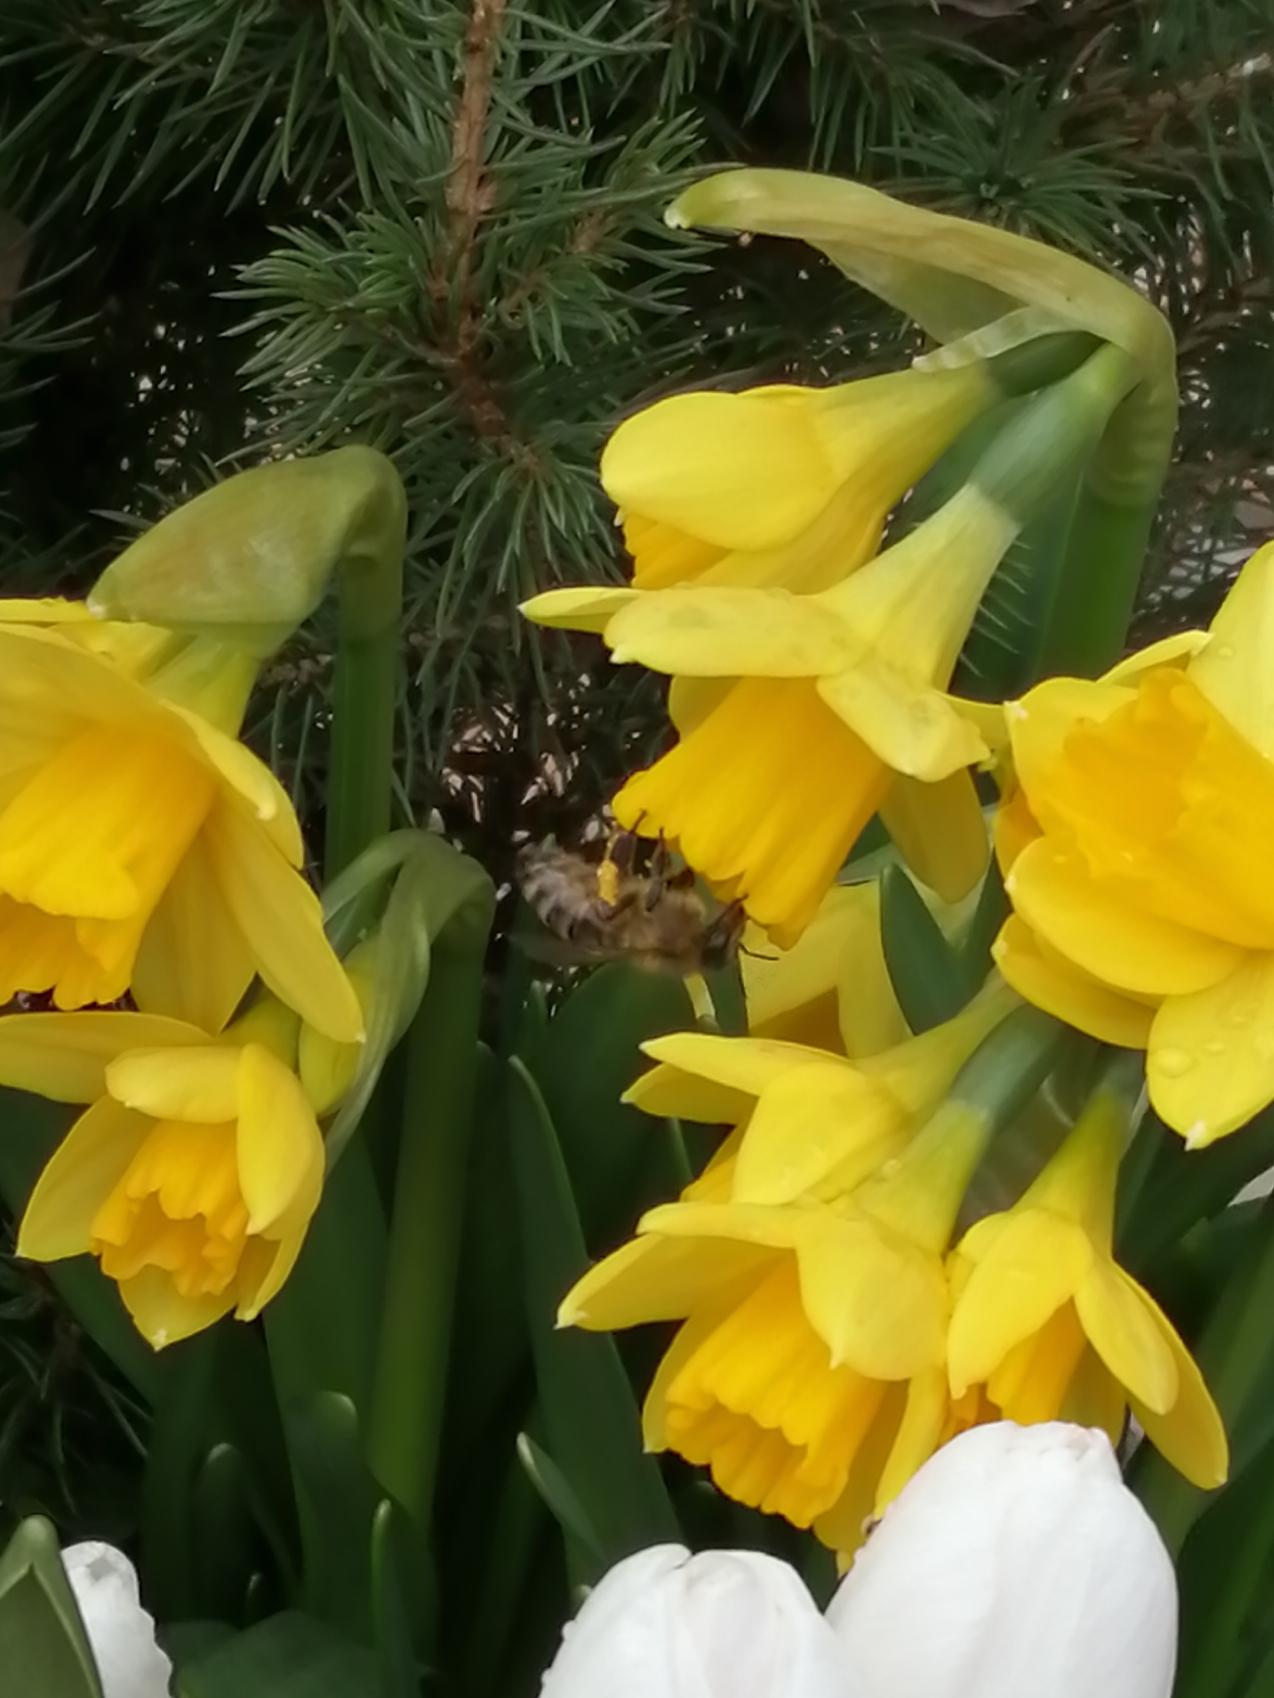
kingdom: Plantae
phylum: Tracheophyta
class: Liliopsida
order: Asparagales
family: Amaryllidaceae
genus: Narcissus
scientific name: Narcissus cyclazetta
